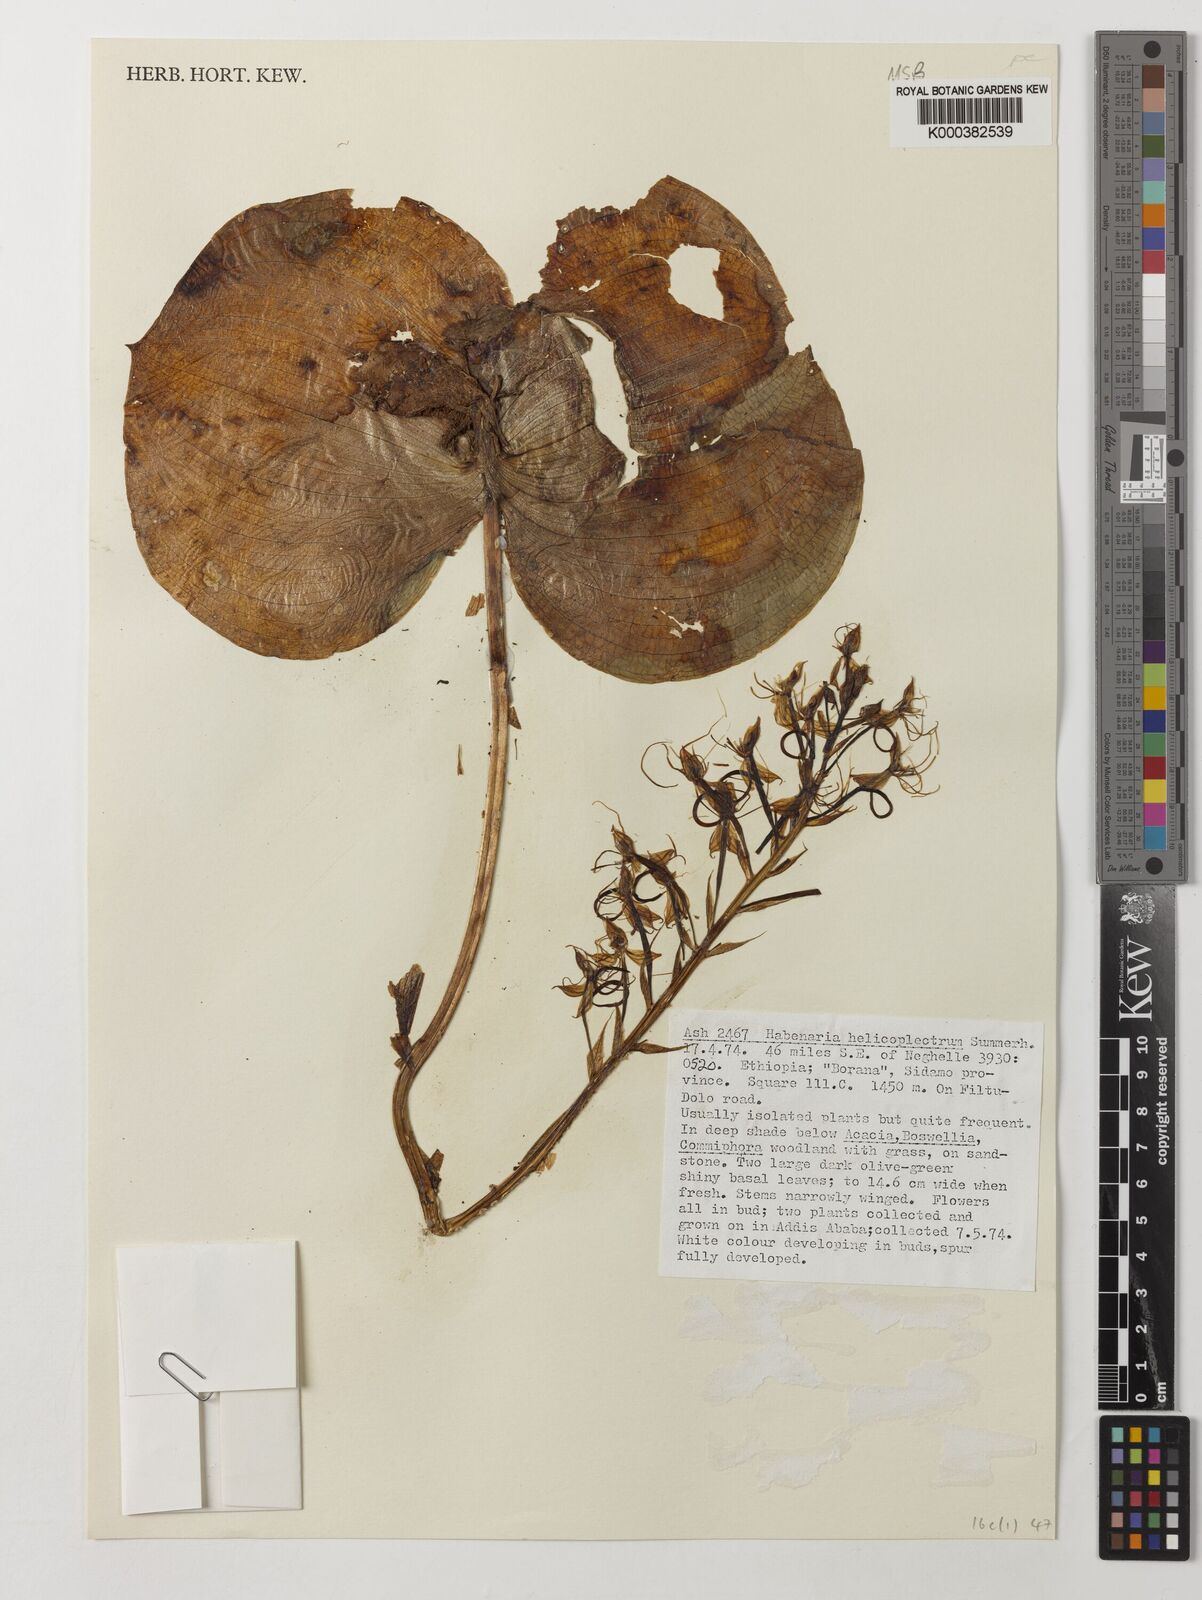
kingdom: Plantae
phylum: Tracheophyta
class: Liliopsida
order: Asparagales
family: Orchidaceae
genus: Habenaria
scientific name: Habenaria helicoplectrum
